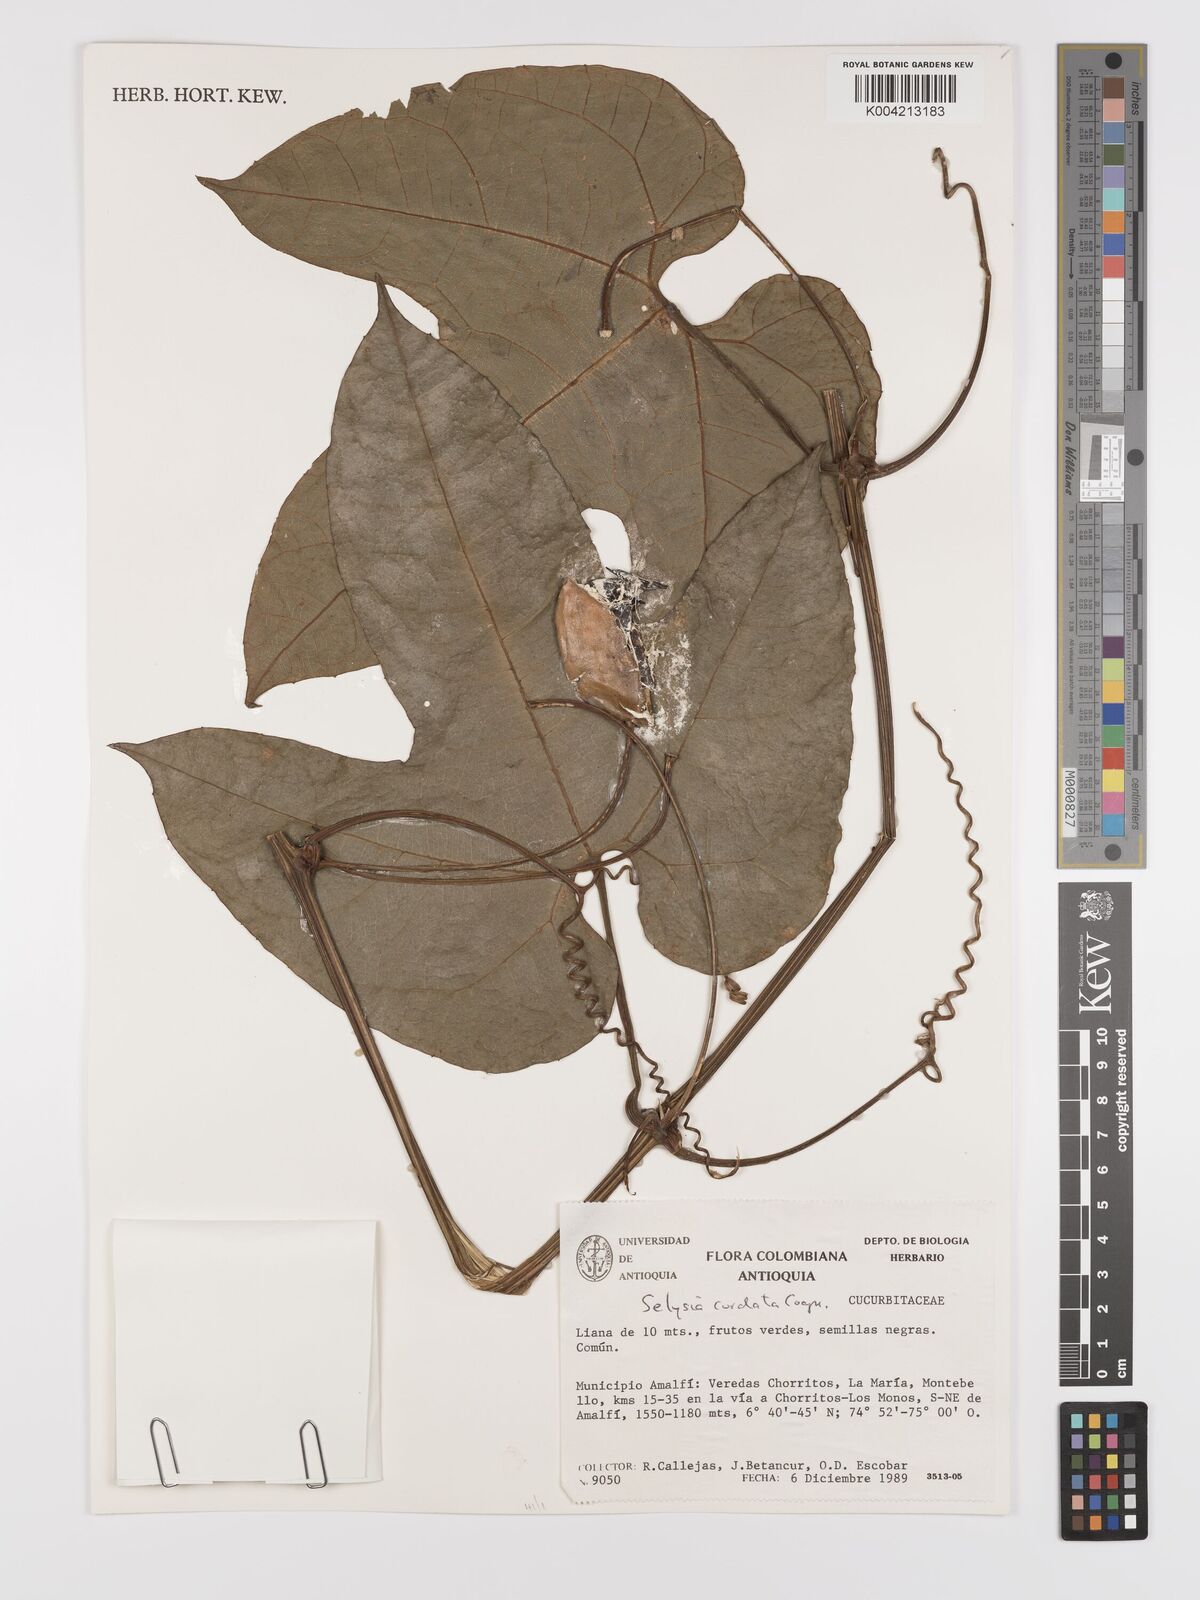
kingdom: Plantae
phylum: Tracheophyta
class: Magnoliopsida
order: Cucurbitales
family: Cucurbitaceae
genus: Cayaponia
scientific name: Cayaponia cordata
